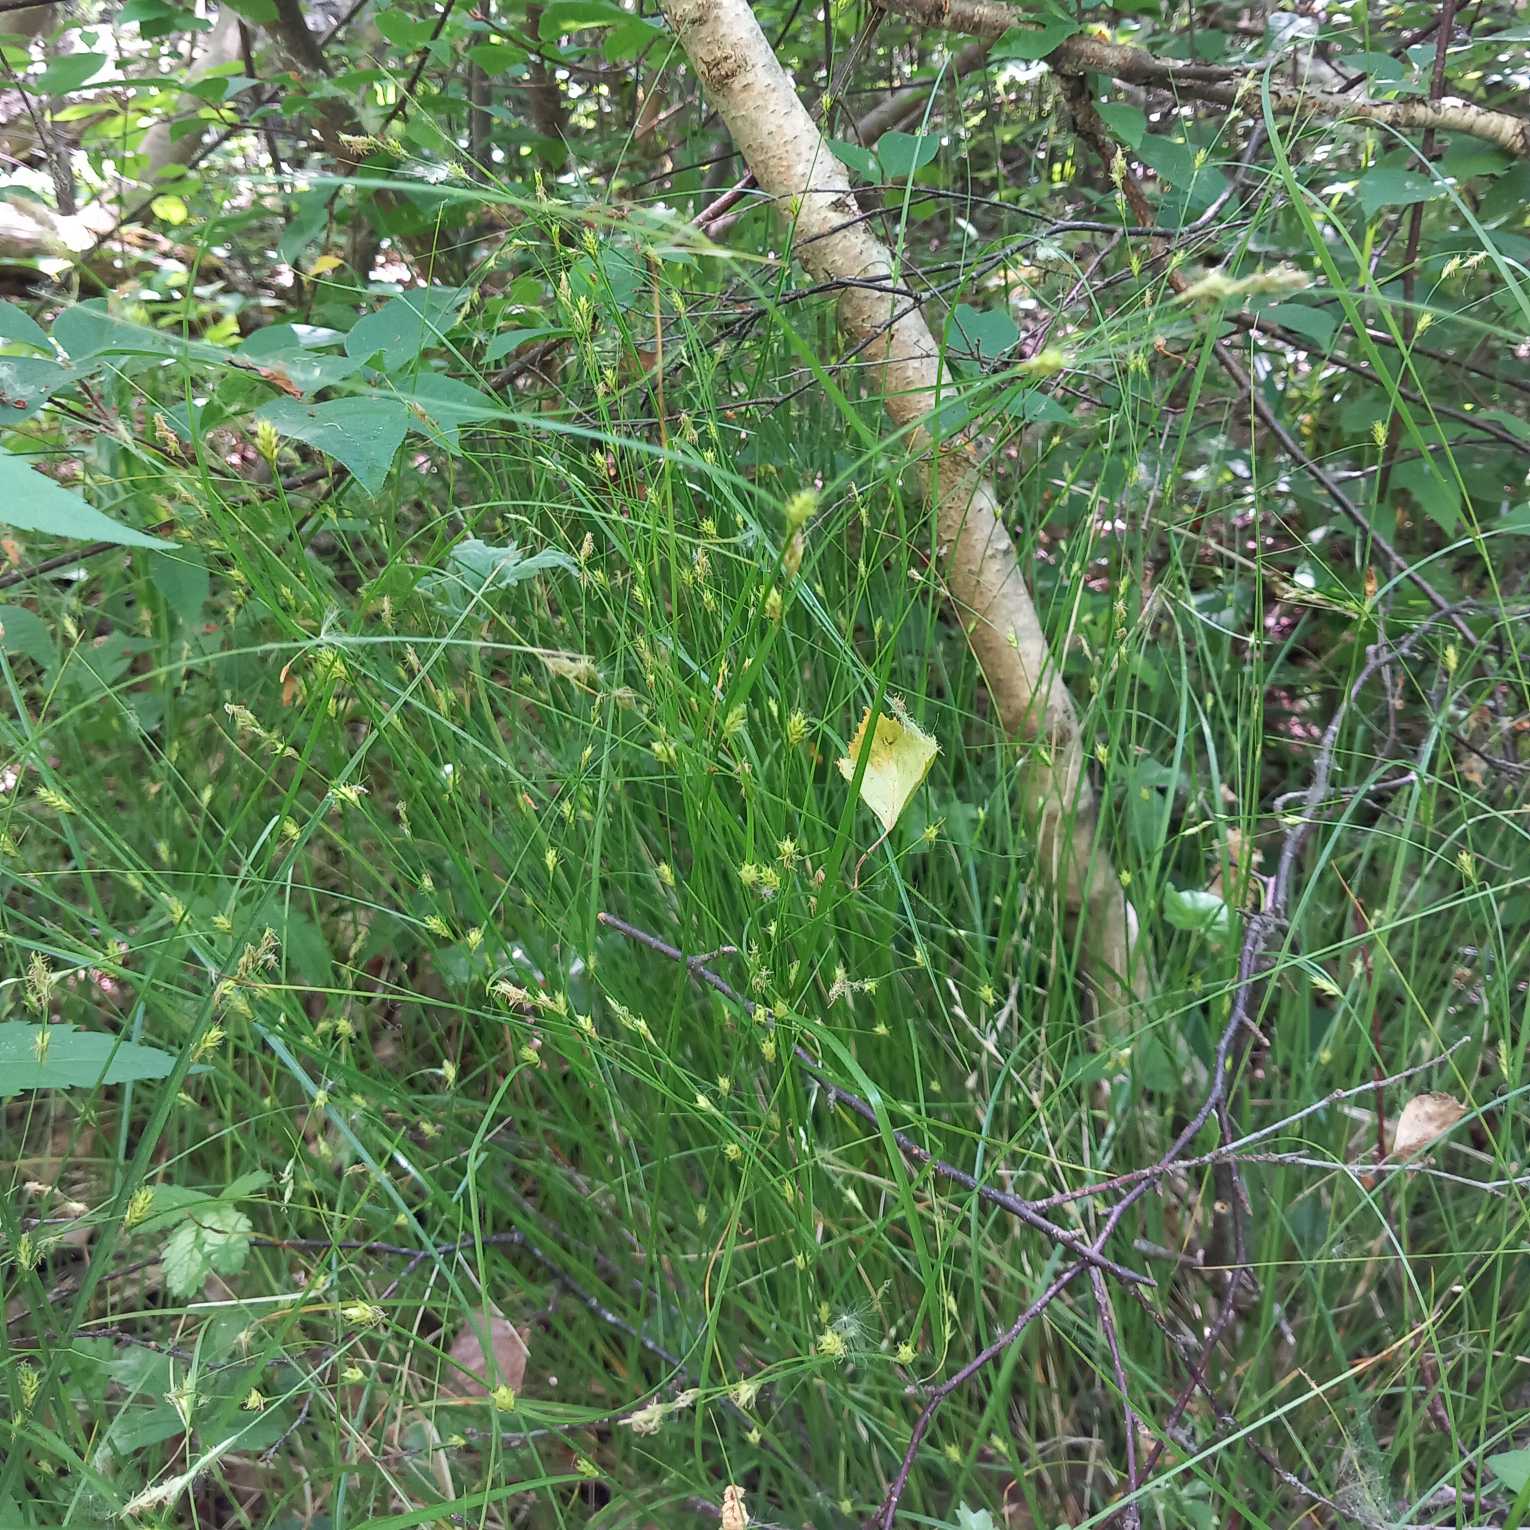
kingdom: Plantae
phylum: Tracheophyta
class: Liliopsida
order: Poales
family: Cyperaceae
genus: Carex
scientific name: Carex remota
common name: Akselblomstret star
